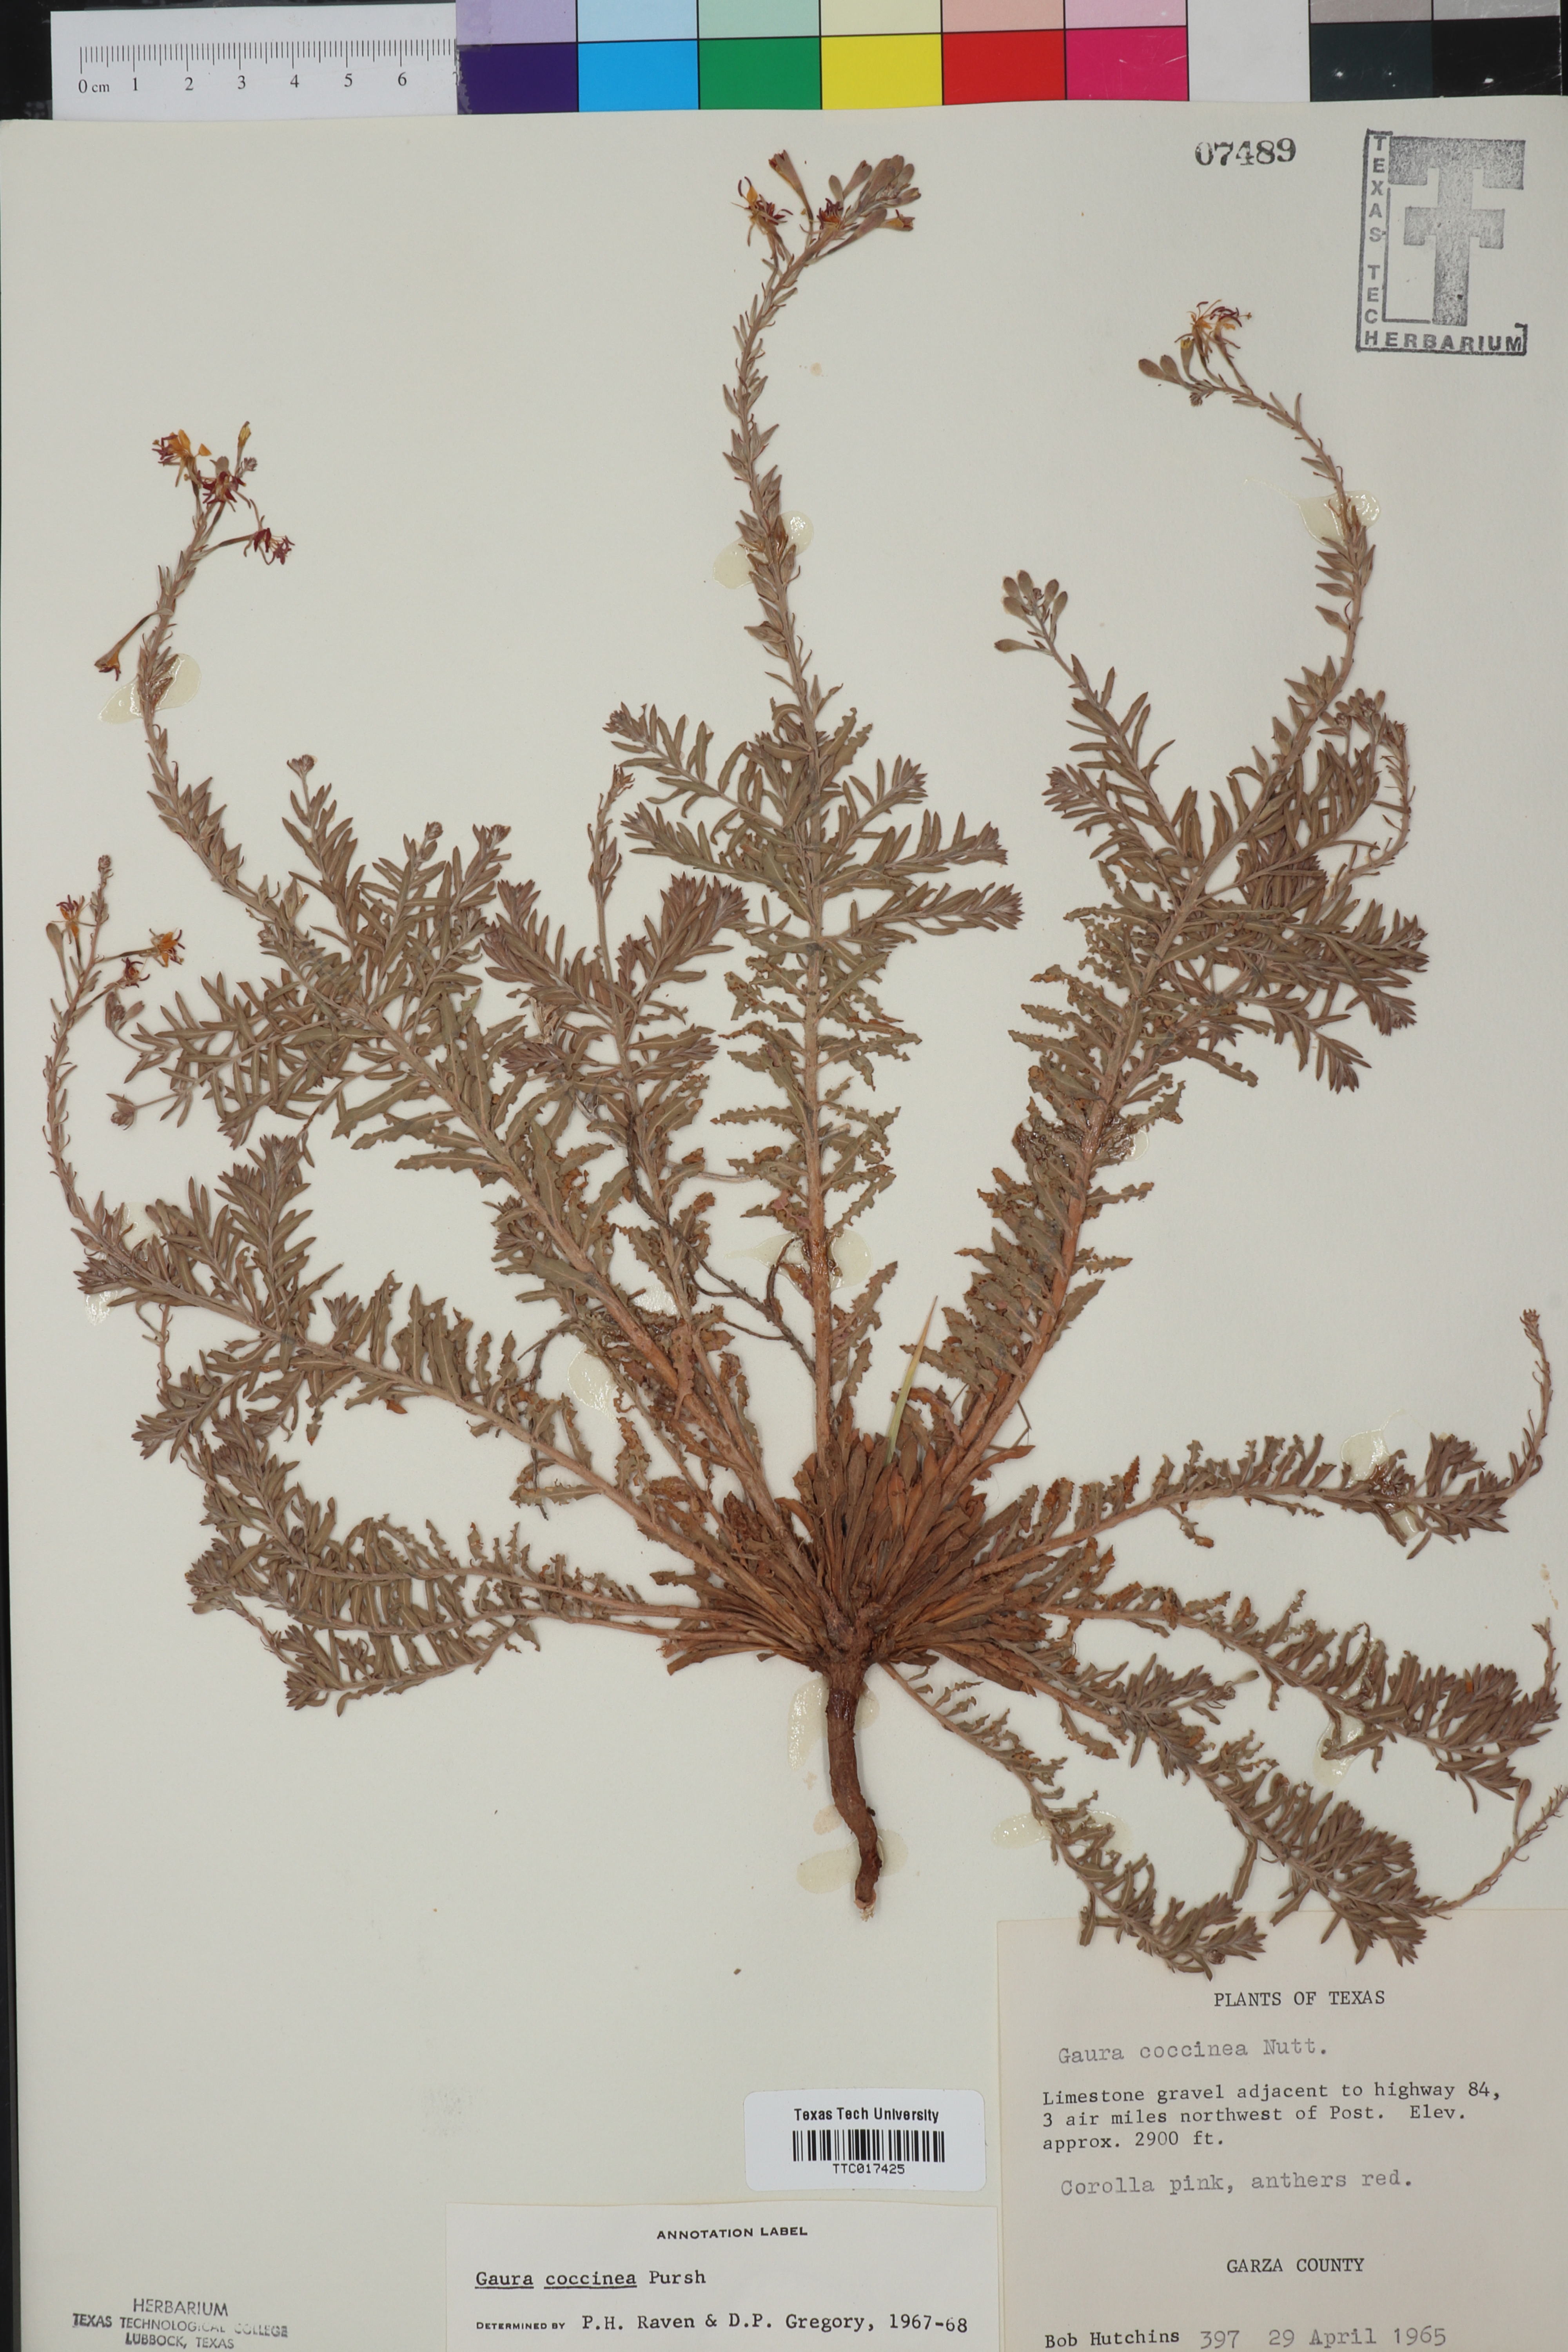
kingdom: Plantae
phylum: Tracheophyta
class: Magnoliopsida
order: Myrtales
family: Onagraceae
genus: Oenothera
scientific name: Oenothera suffrutescens
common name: Scarlet beeblossom
